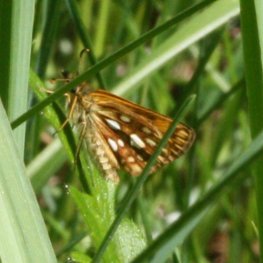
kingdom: Animalia
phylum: Arthropoda
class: Insecta
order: Lepidoptera
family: Hesperiidae
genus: Carterocephalus
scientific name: Carterocephalus palaemon
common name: Chequered Skipper
